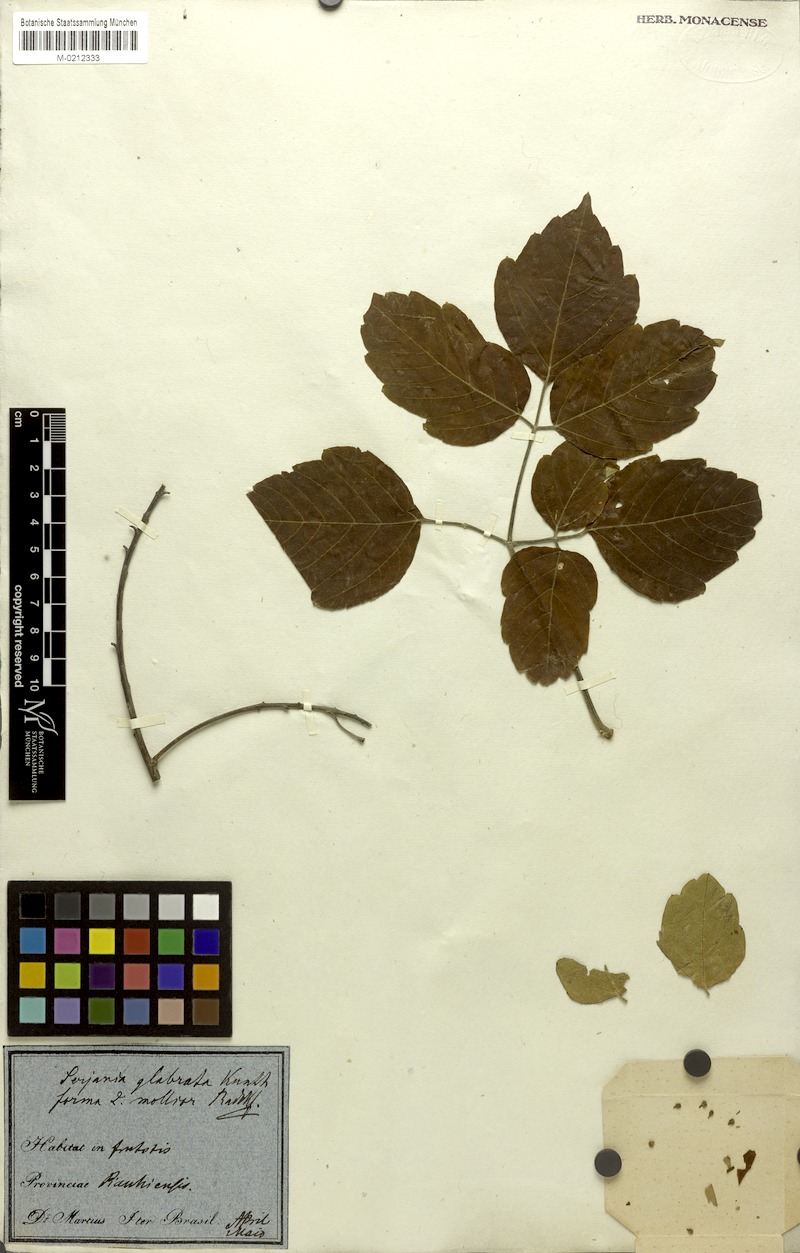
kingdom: Plantae
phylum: Tracheophyta
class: Magnoliopsida
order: Sapindales
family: Sapindaceae
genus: Serjania
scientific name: Serjania glabrata
